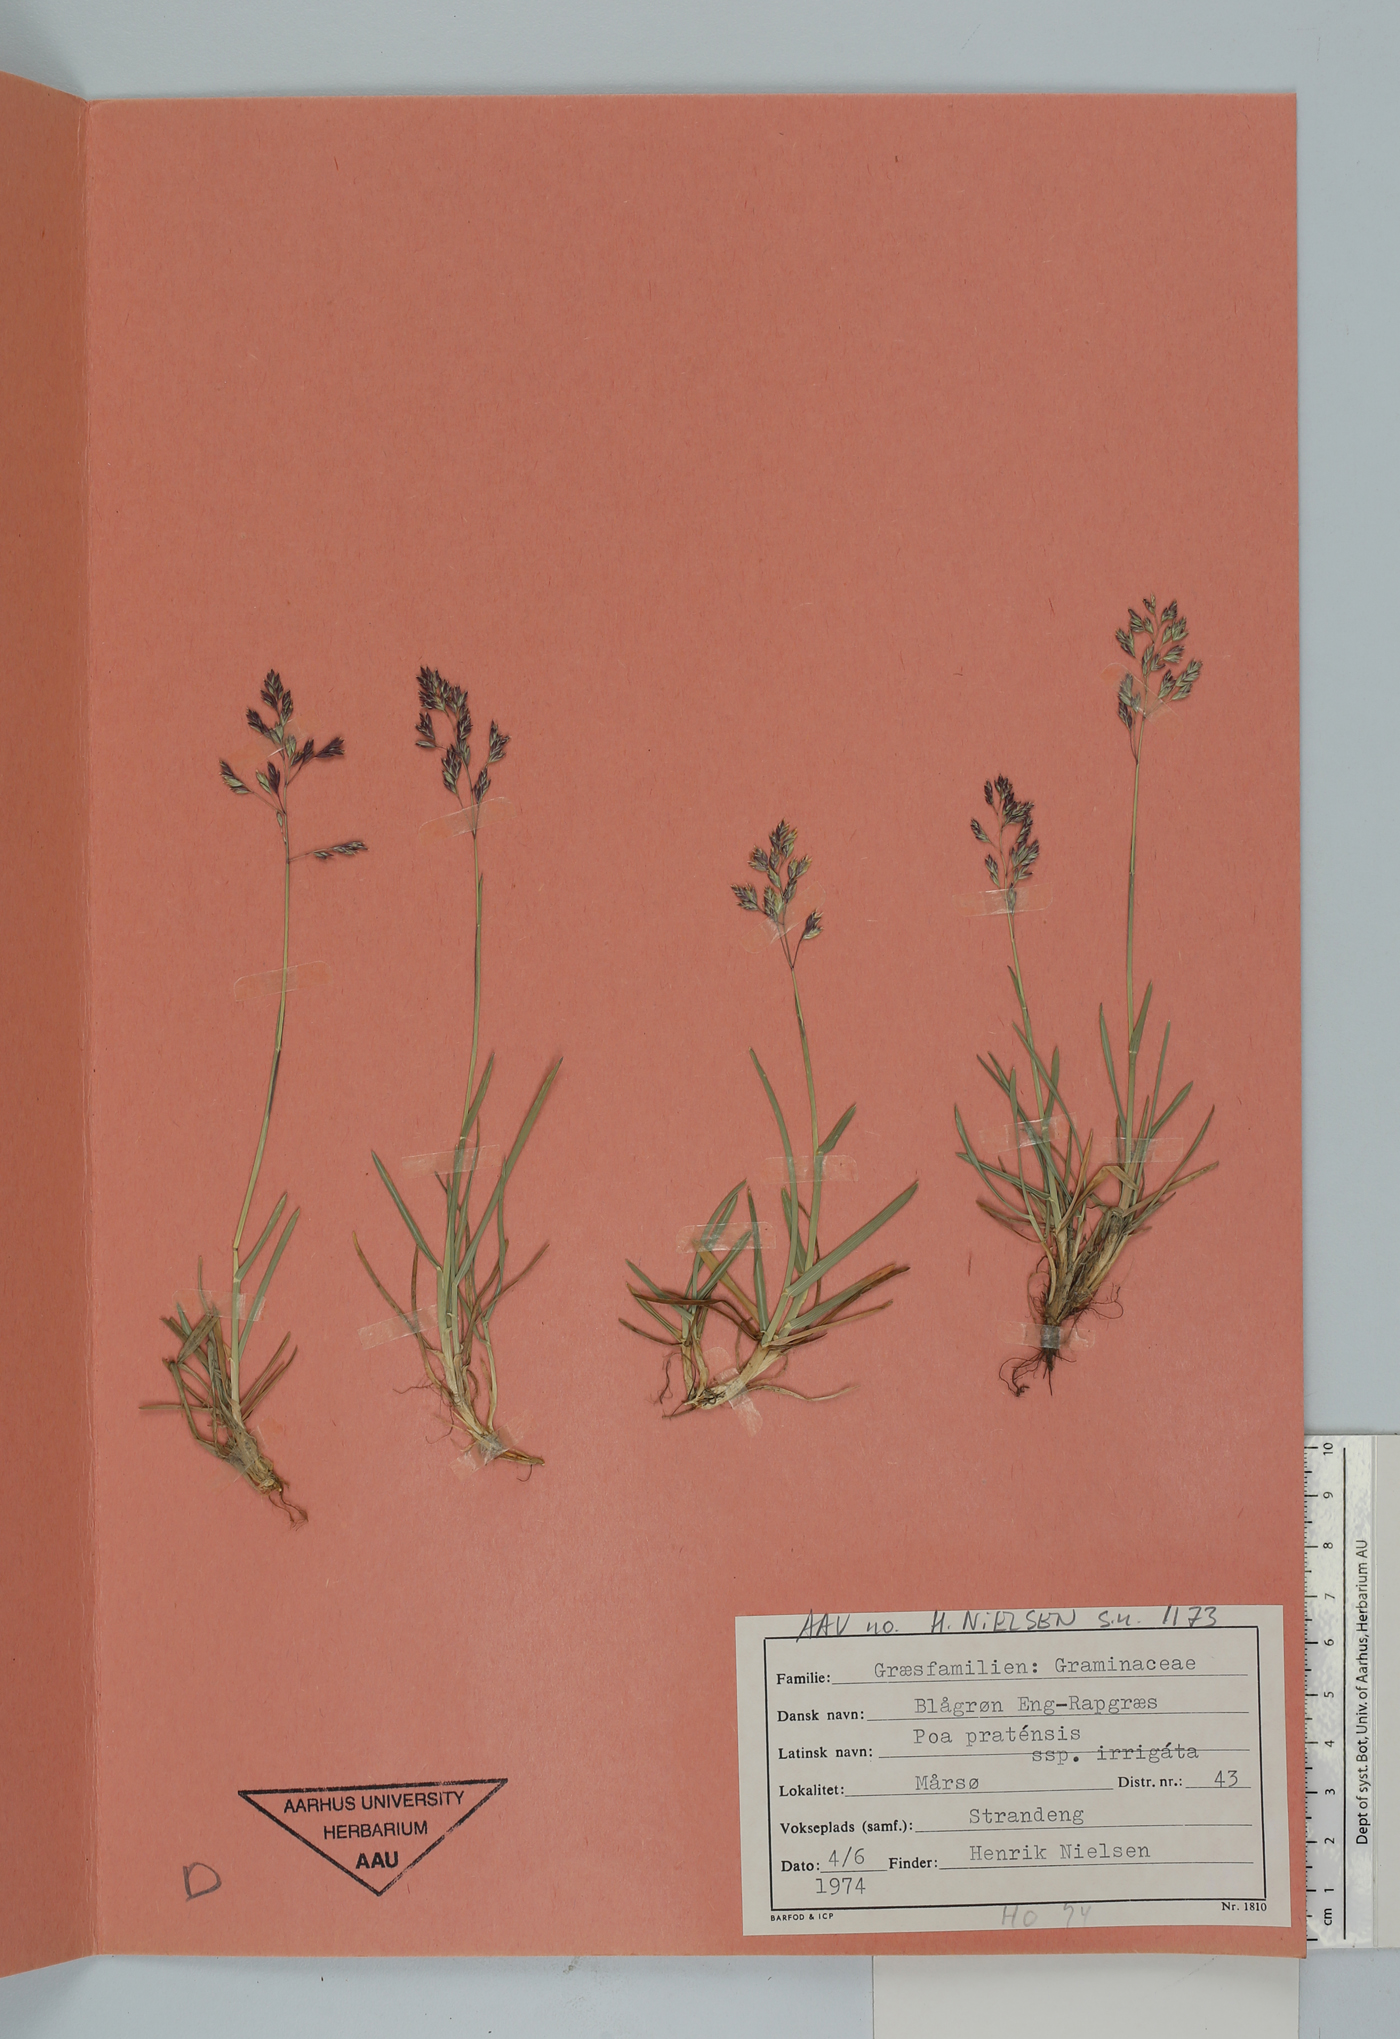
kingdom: Plantae
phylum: Tracheophyta
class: Liliopsida
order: Poales
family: Poaceae
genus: Poa
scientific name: Poa pratensis
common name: Kentucky bluegrass
